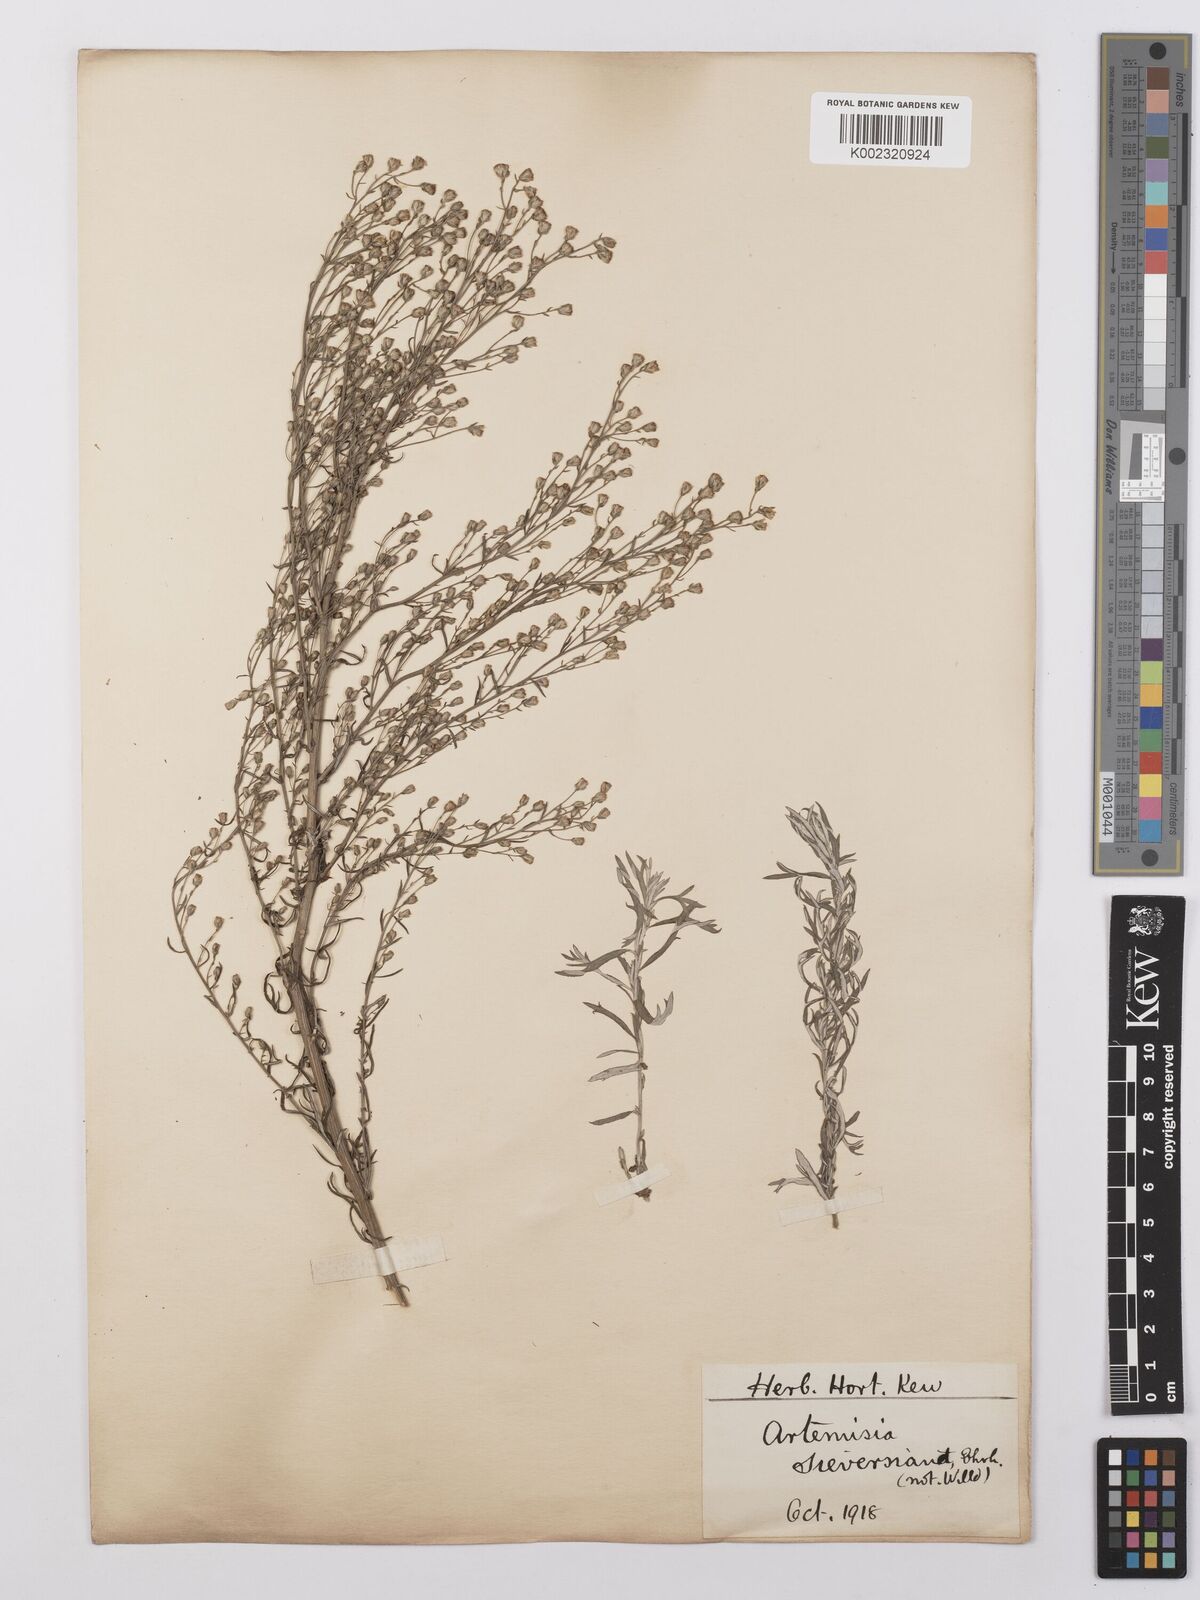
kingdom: Plantae
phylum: Tracheophyta
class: Magnoliopsida
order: Asterales
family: Asteraceae
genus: Artemisia
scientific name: Artemisia sieversiana
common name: Sieversian wormwood
